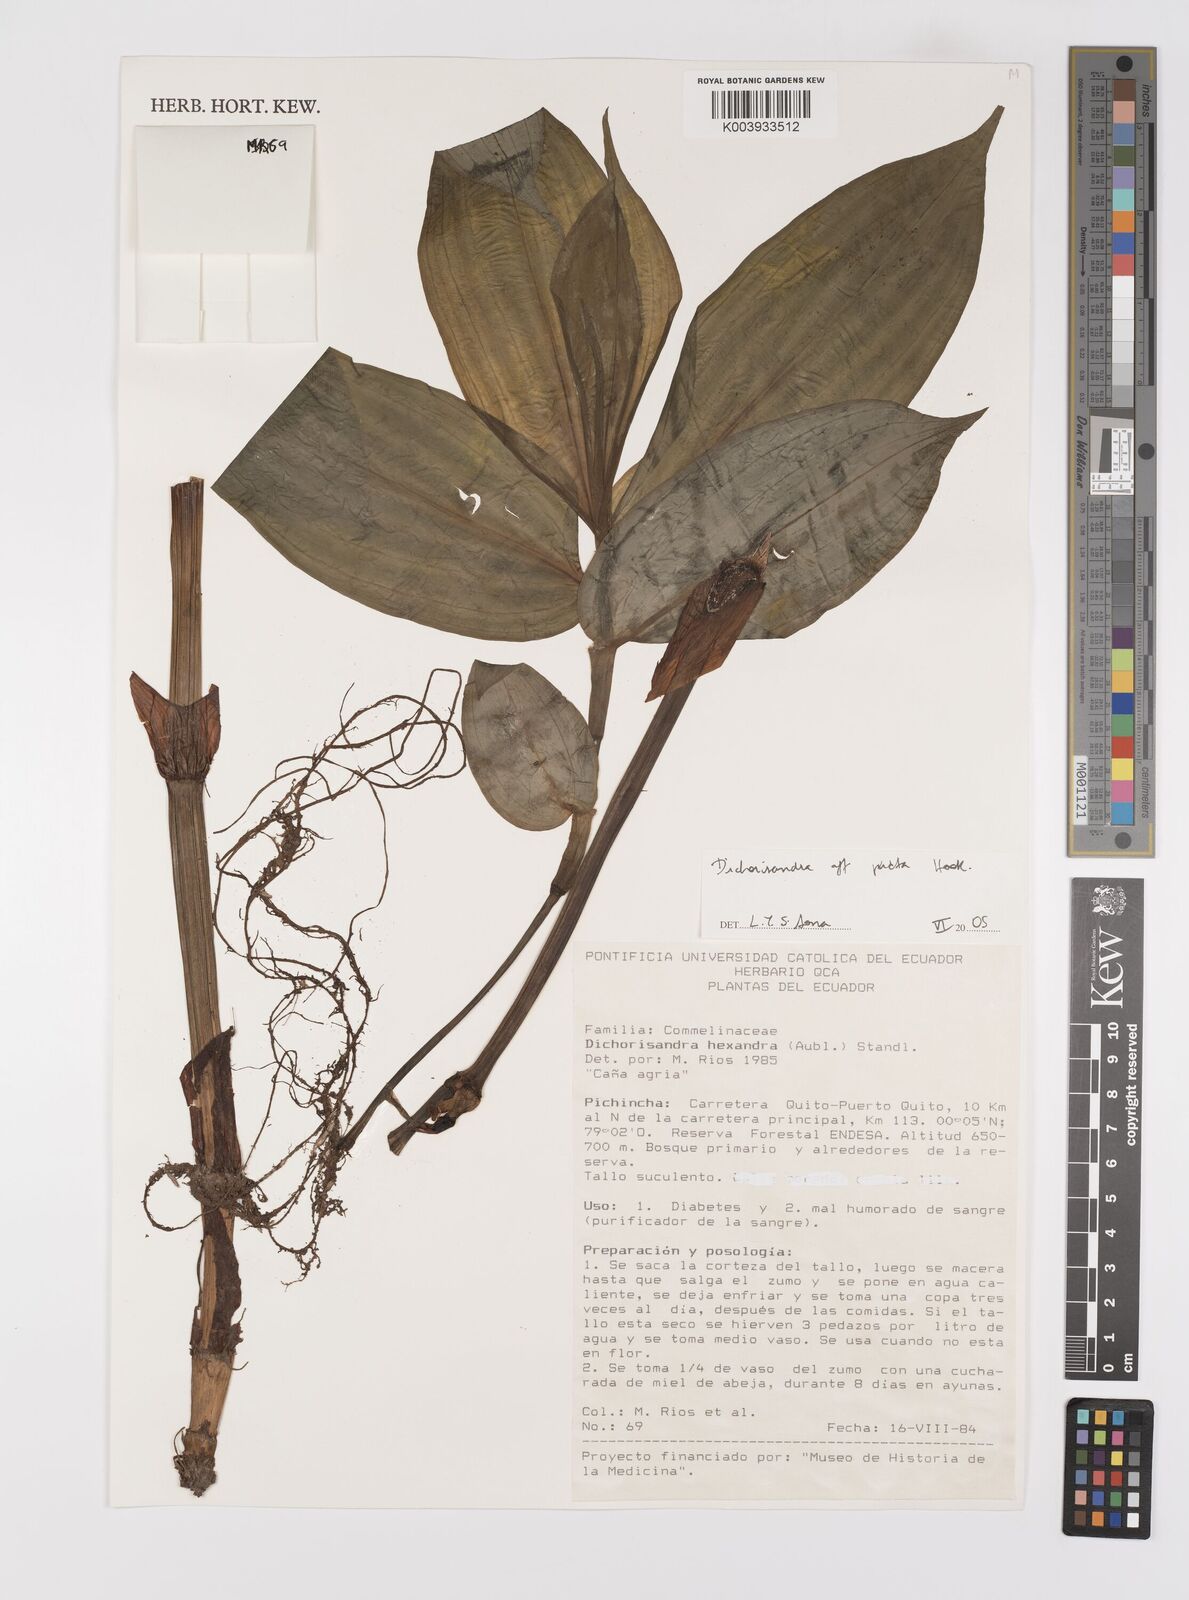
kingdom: Plantae
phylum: Tracheophyta
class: Liliopsida
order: Commelinales
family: Commelinaceae
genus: Dichorisandra
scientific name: Dichorisandra picta
